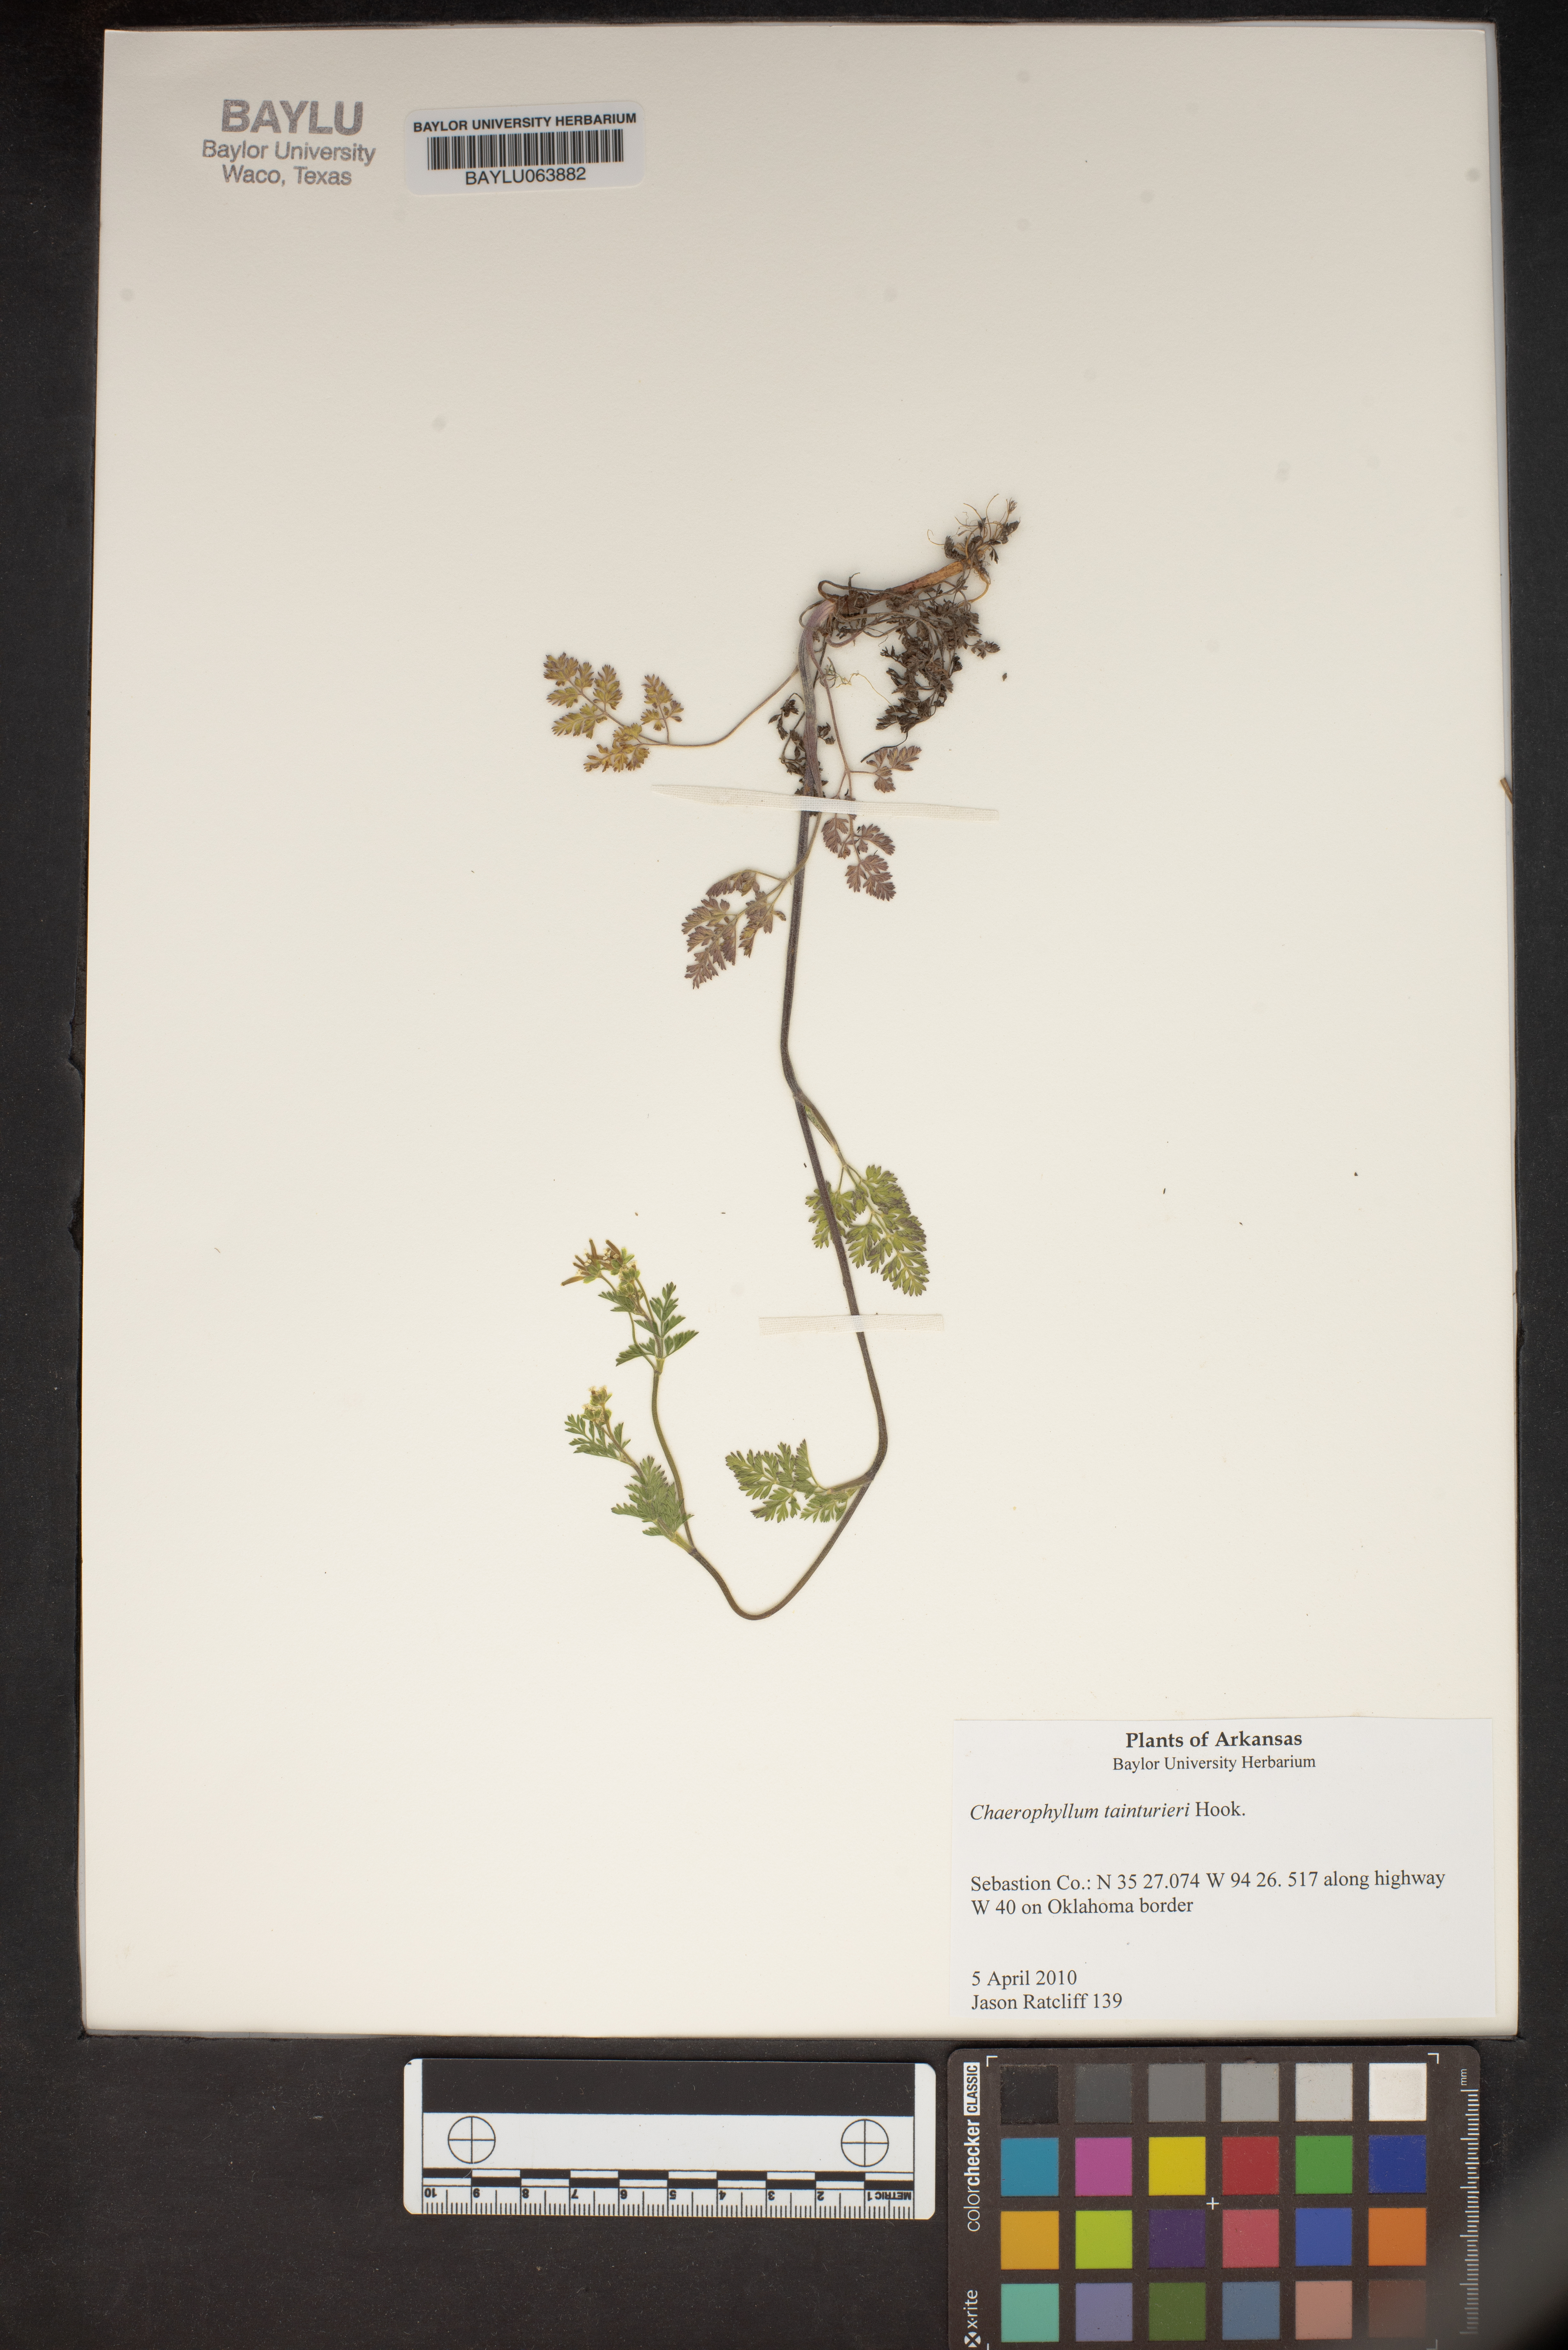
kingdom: Plantae
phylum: Tracheophyta
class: Magnoliopsida
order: Apiales
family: Apiaceae
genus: Chaerophyllum
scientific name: Chaerophyllum tainturieri
